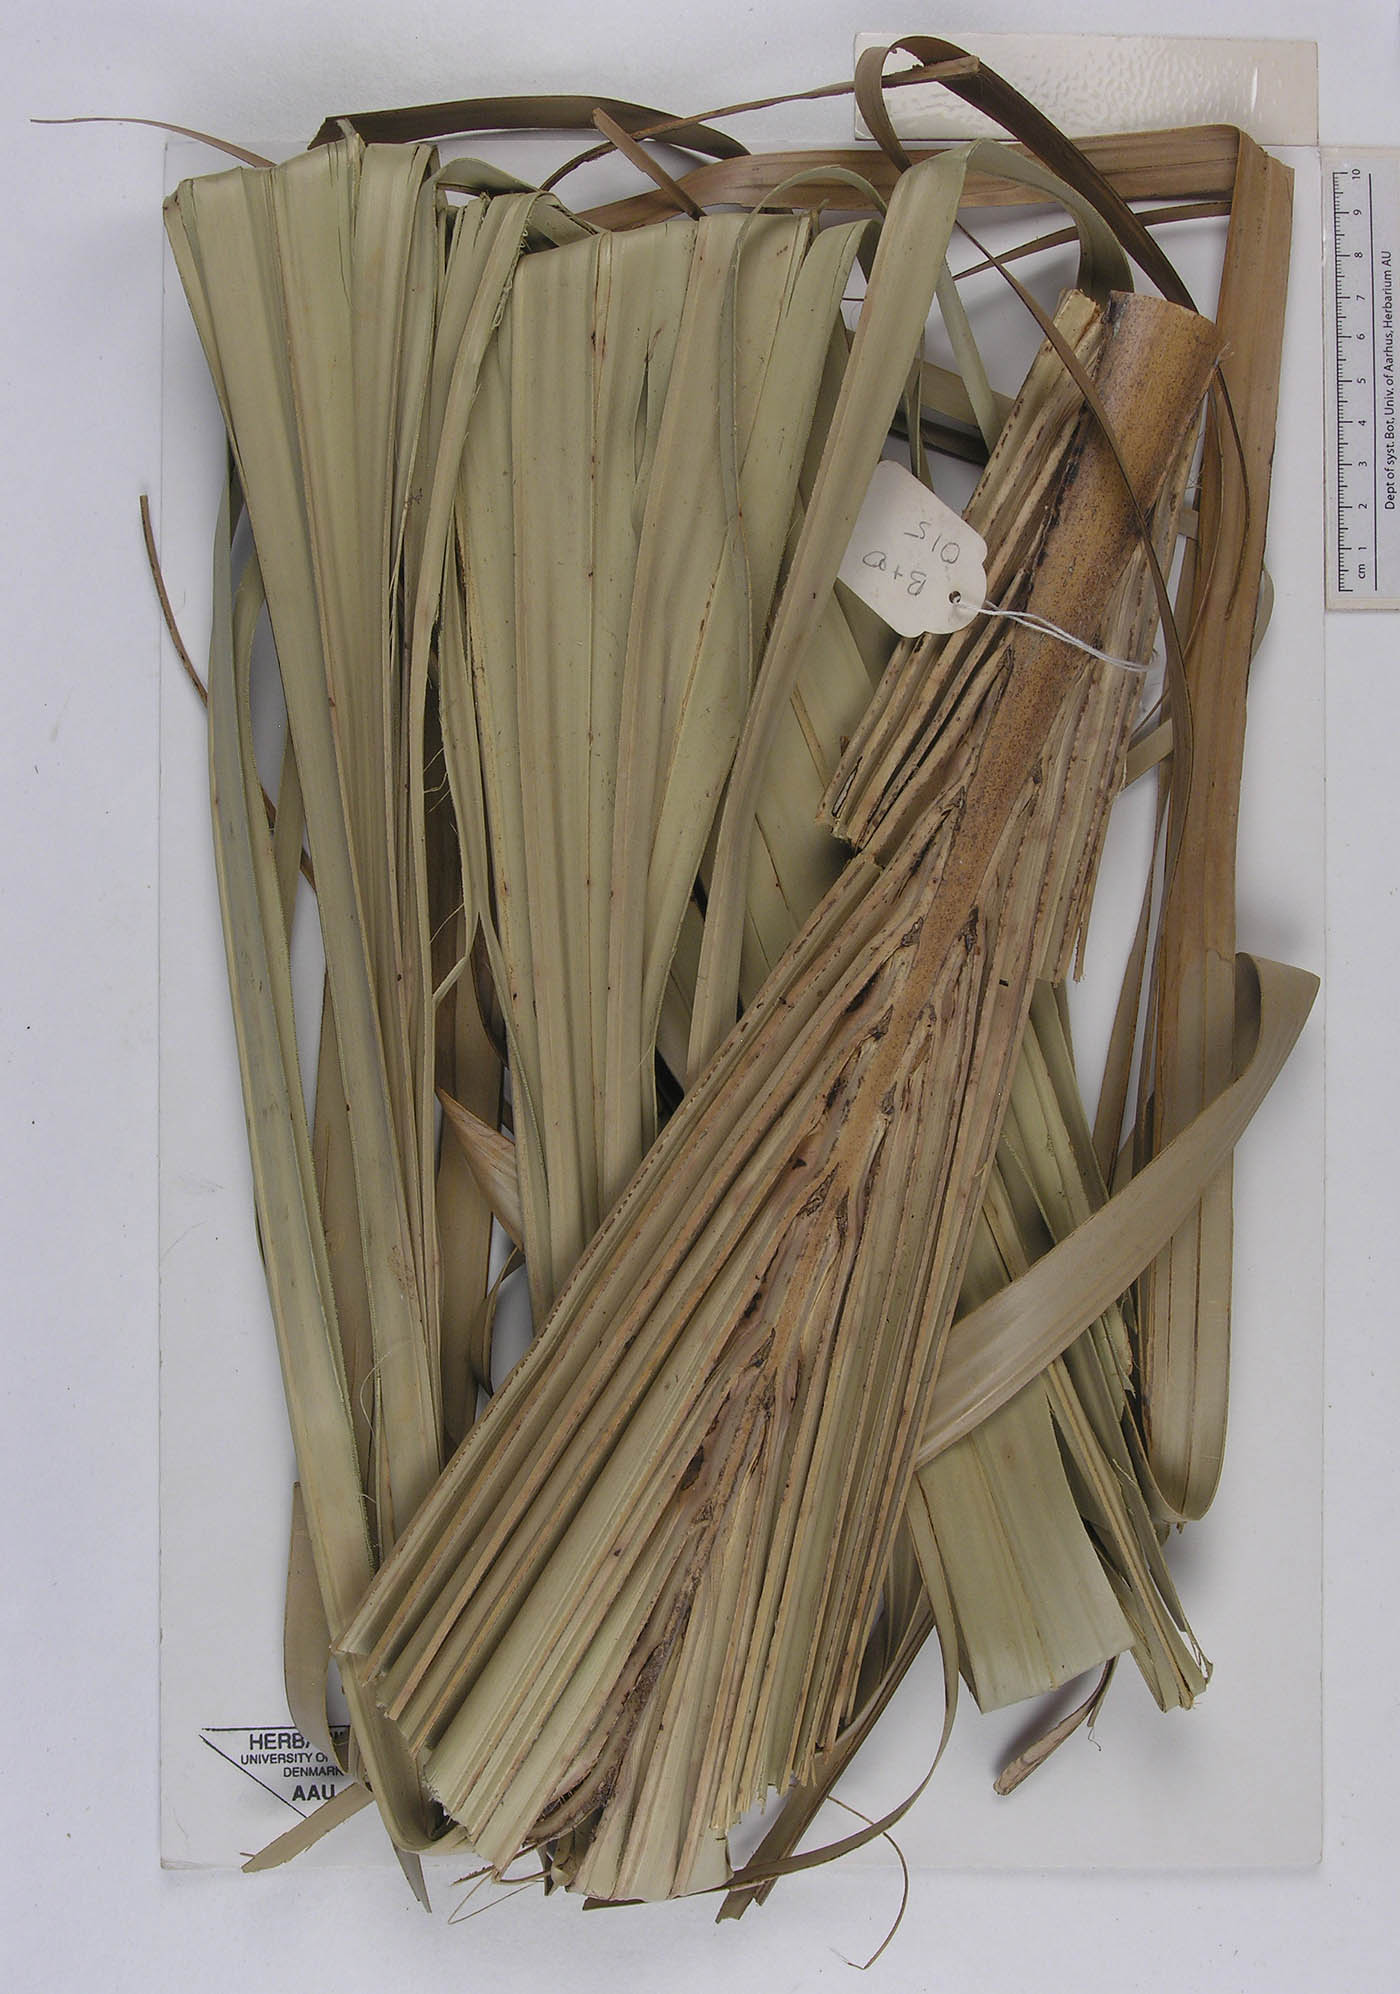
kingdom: Plantae
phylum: Tracheophyta
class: Liliopsida
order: Arecales
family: Arecaceae
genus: Borassus
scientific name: Borassus aethiopum
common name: Elephant palm
